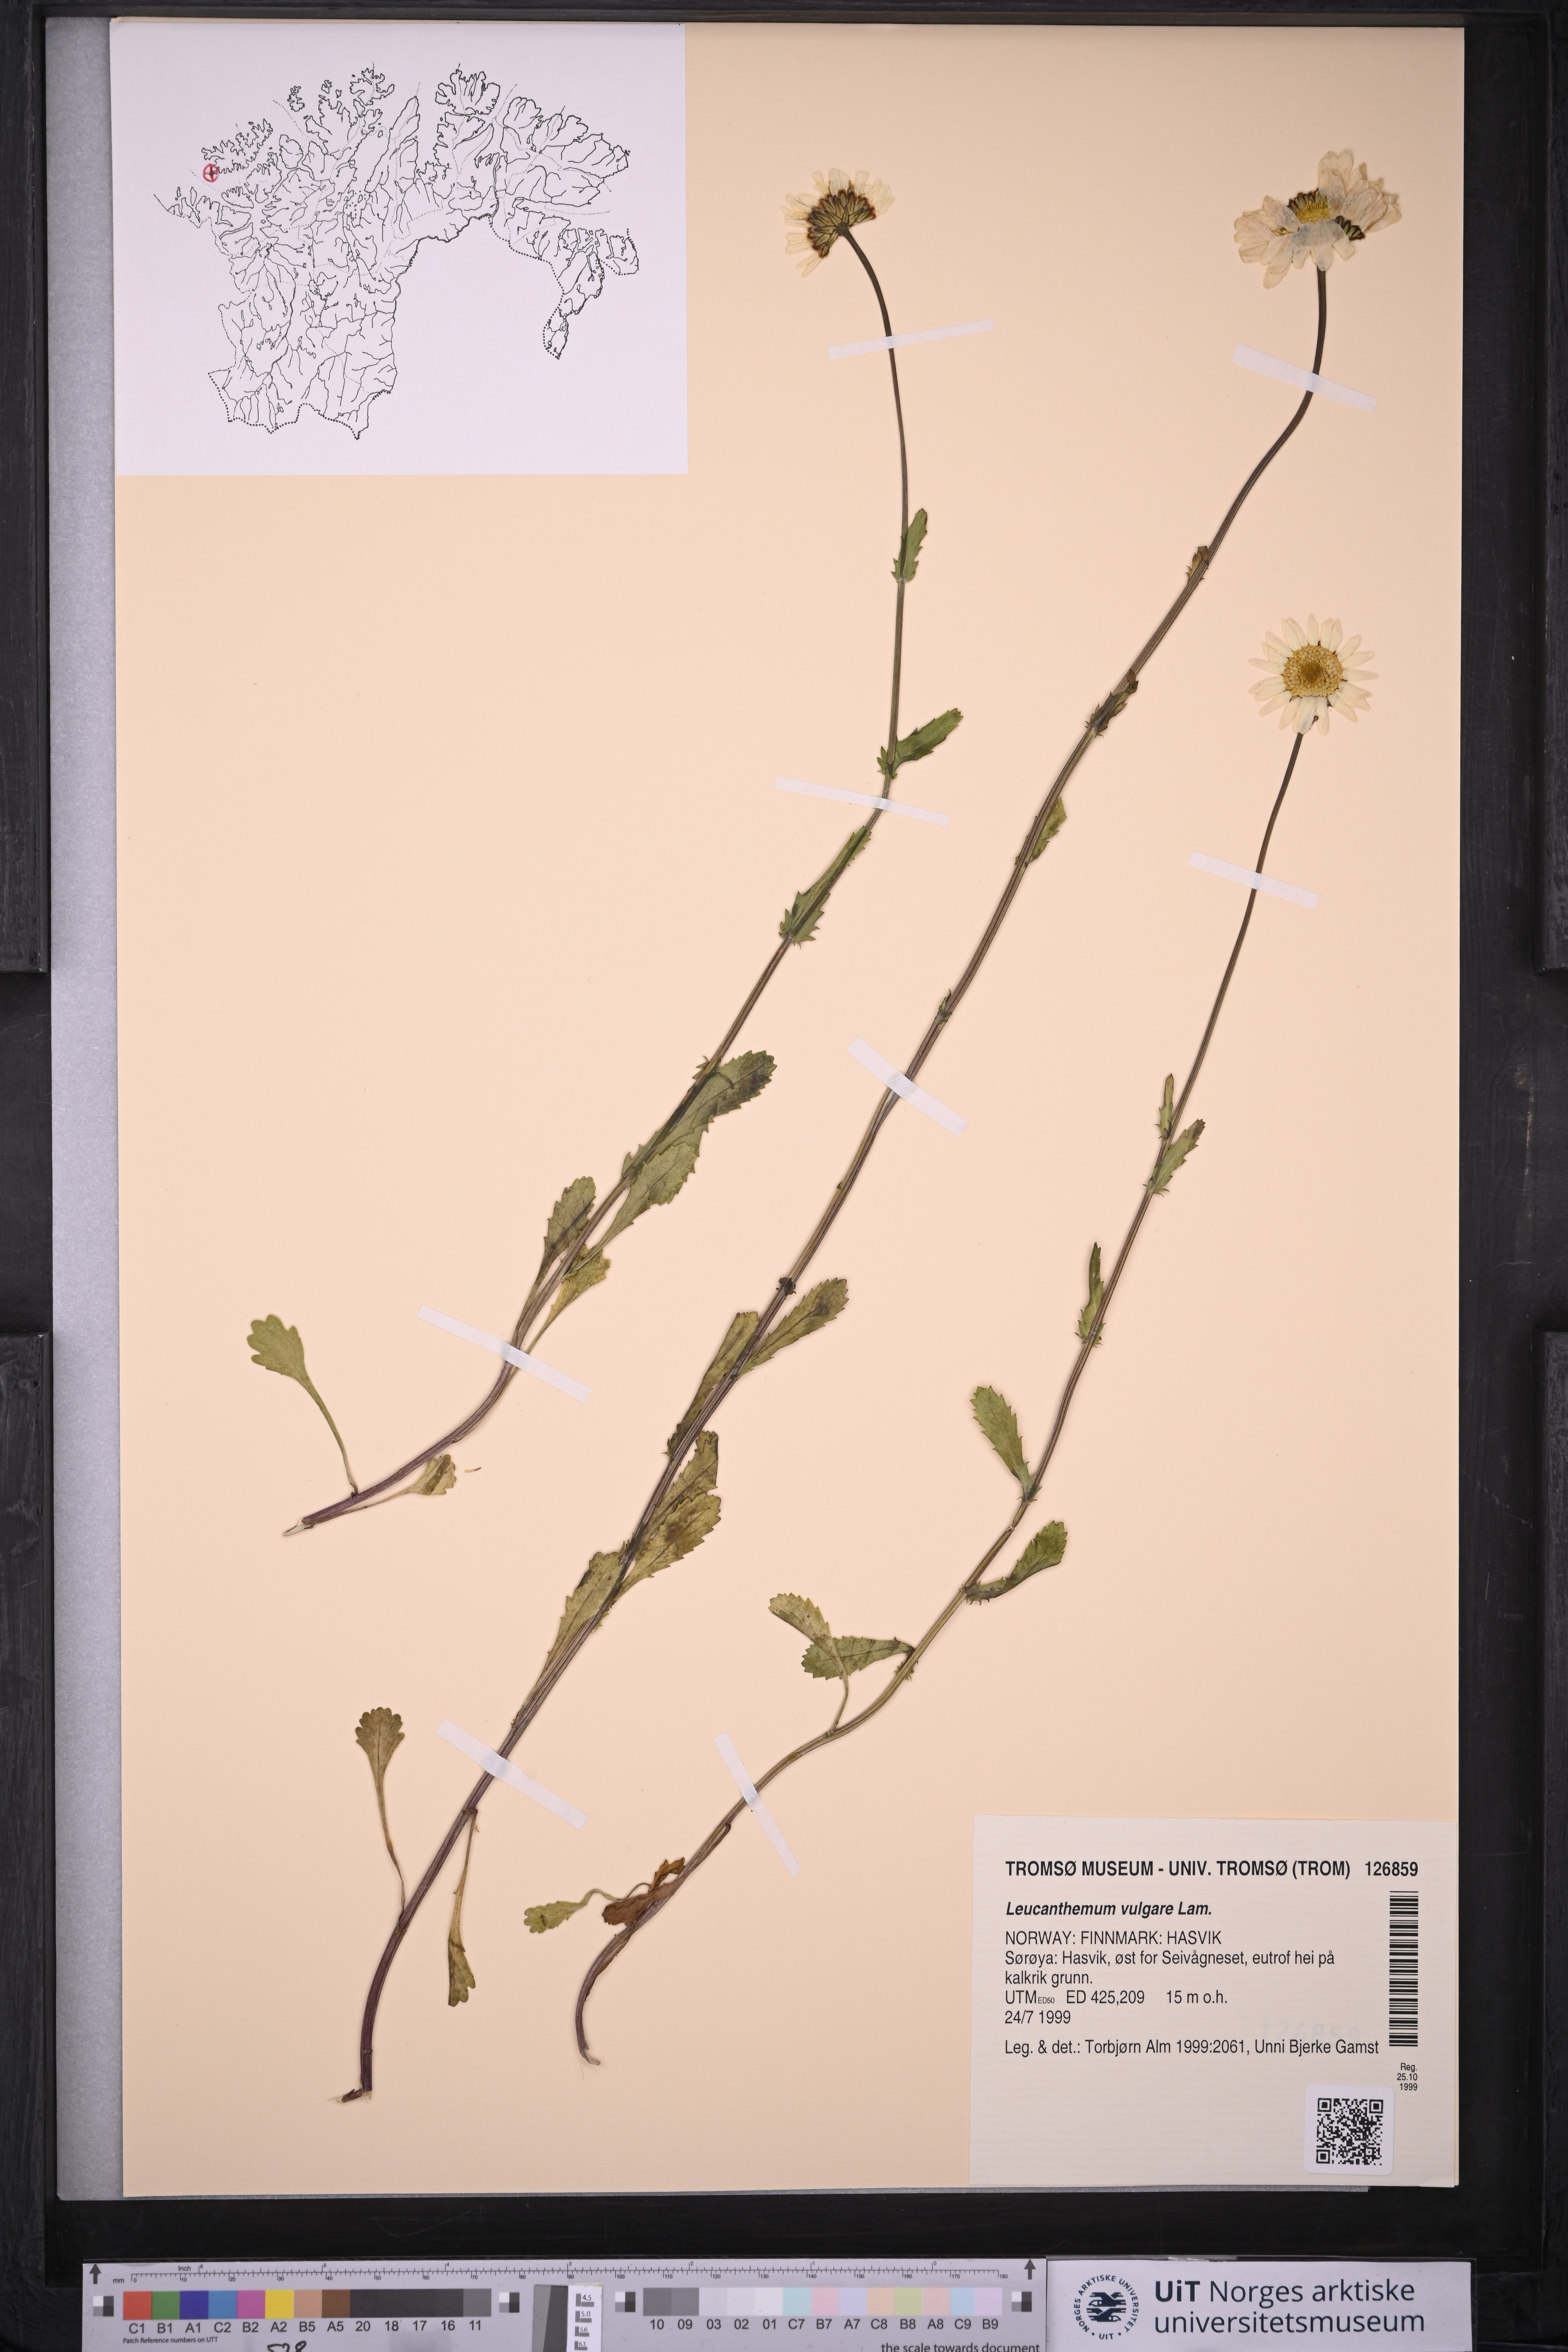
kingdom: Plantae
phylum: Tracheophyta
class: Magnoliopsida
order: Asterales
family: Asteraceae
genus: Leucanthemum
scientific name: Leucanthemum vulgare
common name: Oxeye daisy
